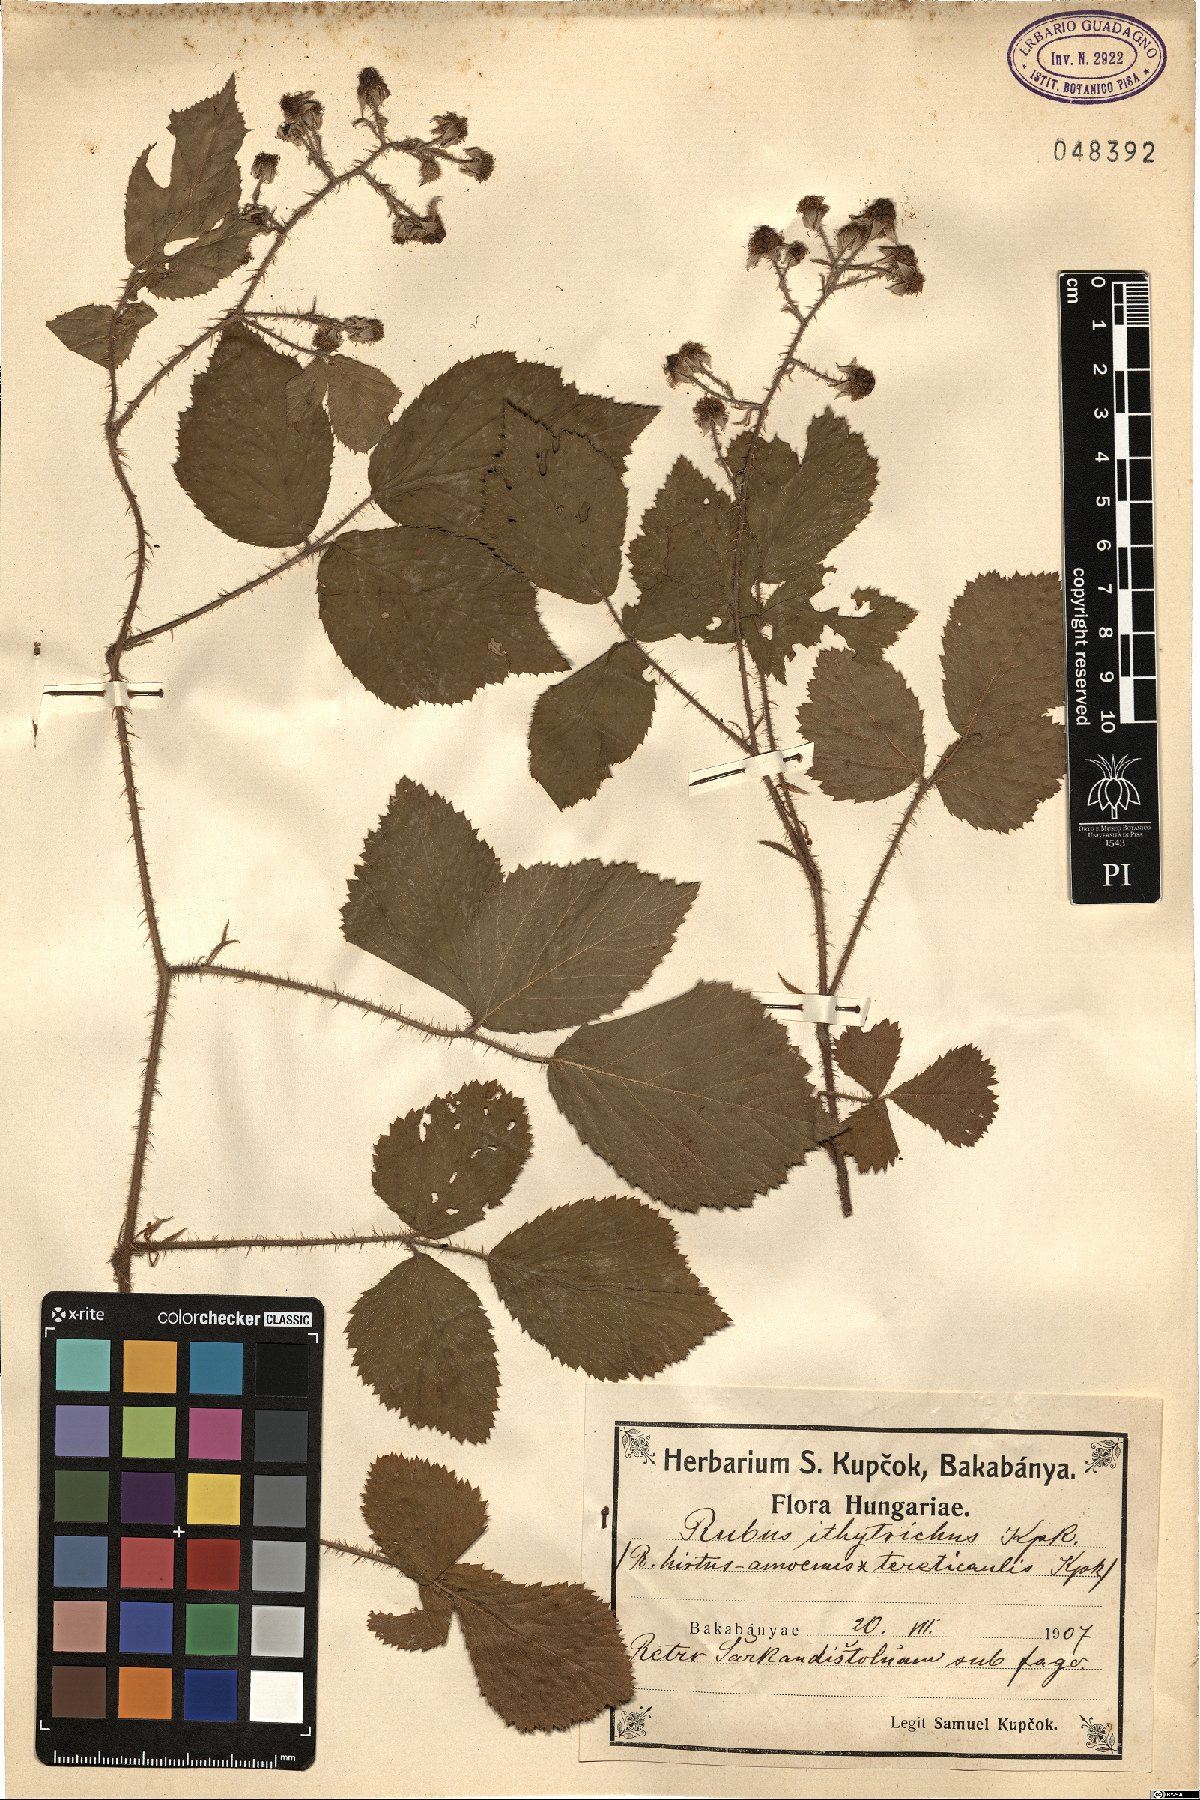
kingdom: Plantae
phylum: Tracheophyta
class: Magnoliopsida
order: Rosales
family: Rosaceae
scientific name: Rosaceae
